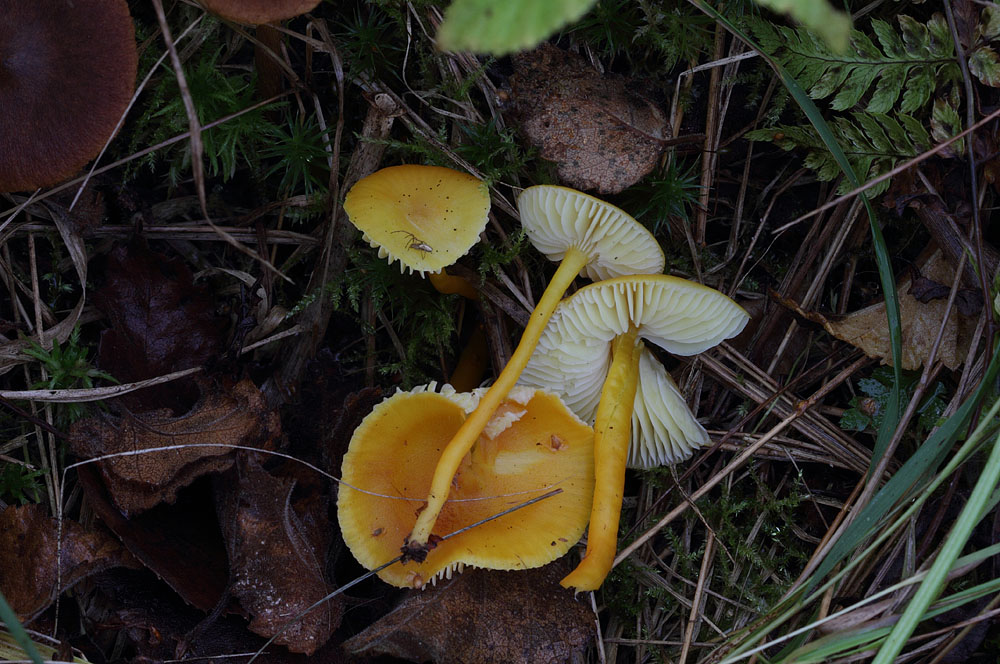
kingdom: Fungi
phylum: Basidiomycota
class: Agaricomycetes
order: Agaricales
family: Hygrophoraceae
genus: Hygrocybe
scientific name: Hygrocybe chlorophana
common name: gul vokshat
